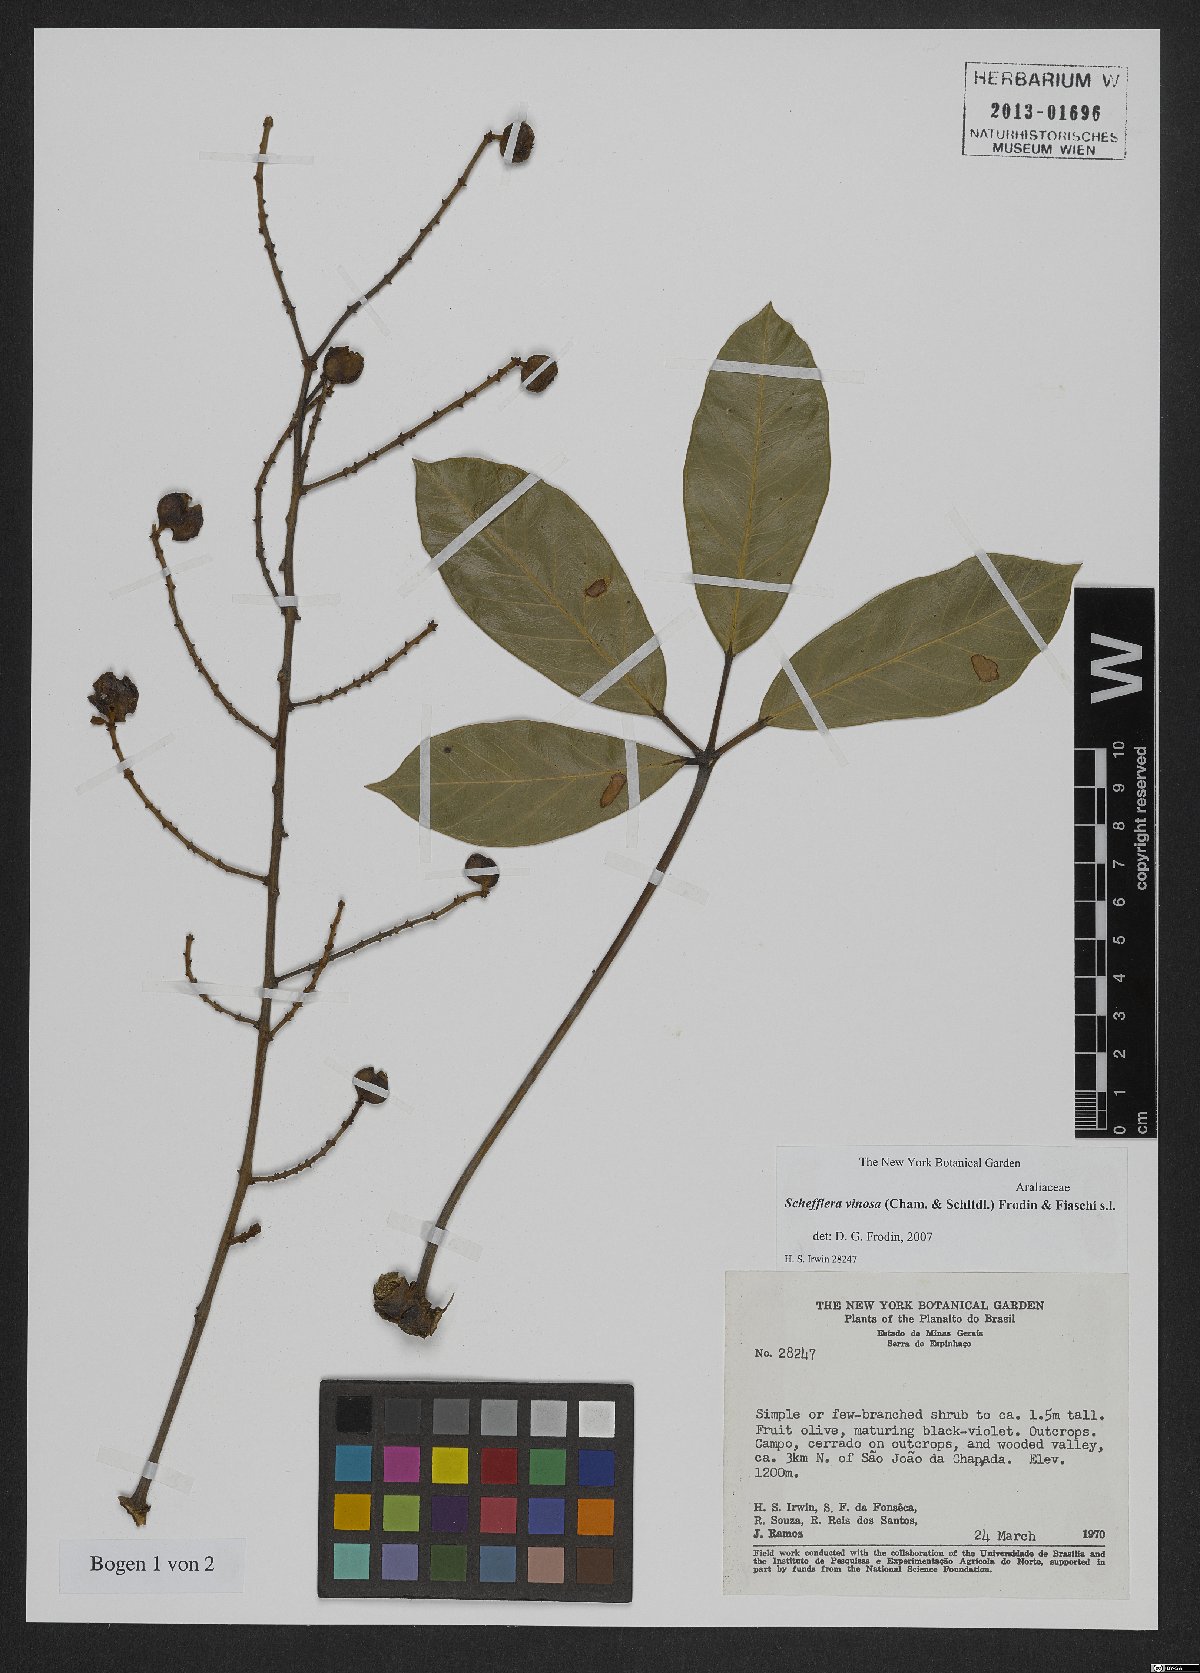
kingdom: Plantae
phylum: Tracheophyta
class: Magnoliopsida
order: Apiales
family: Araliaceae
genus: Didymopanax
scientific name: Didymopanax vinosus
